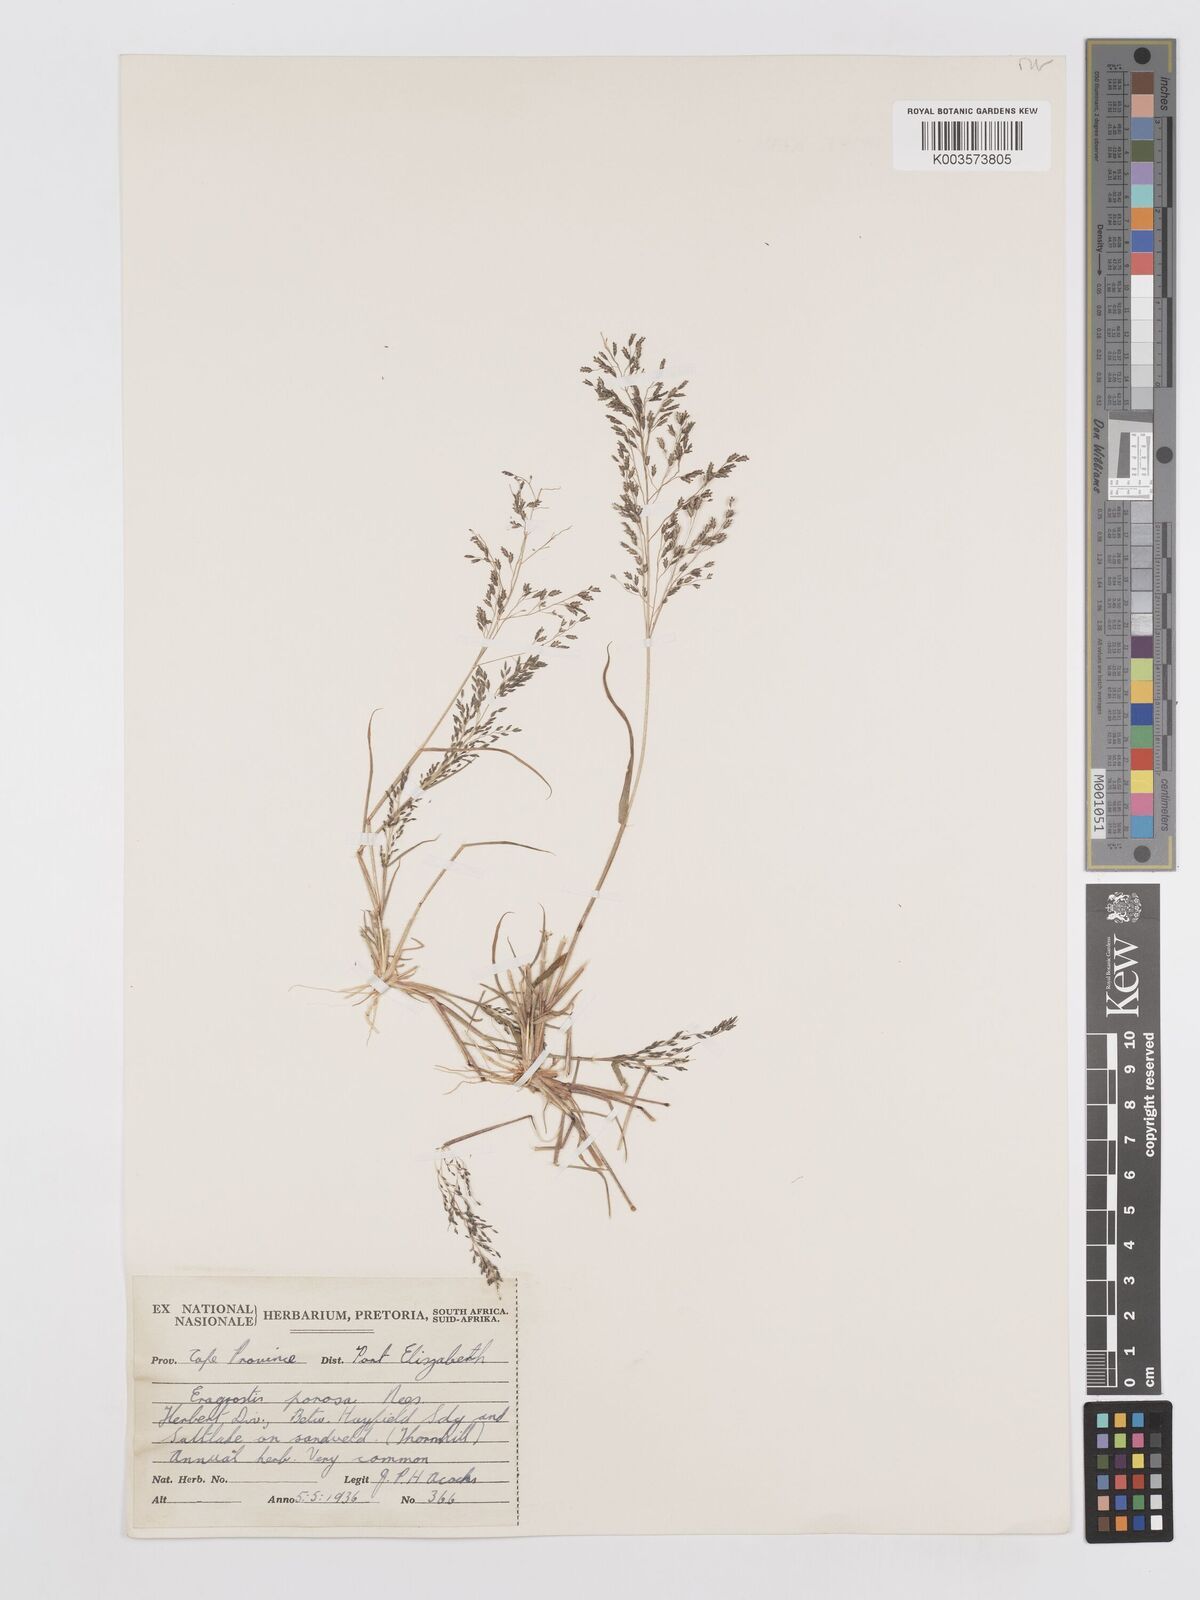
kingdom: Plantae
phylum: Tracheophyta
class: Liliopsida
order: Poales
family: Poaceae
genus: Eragrostis
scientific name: Eragrostis porosa
